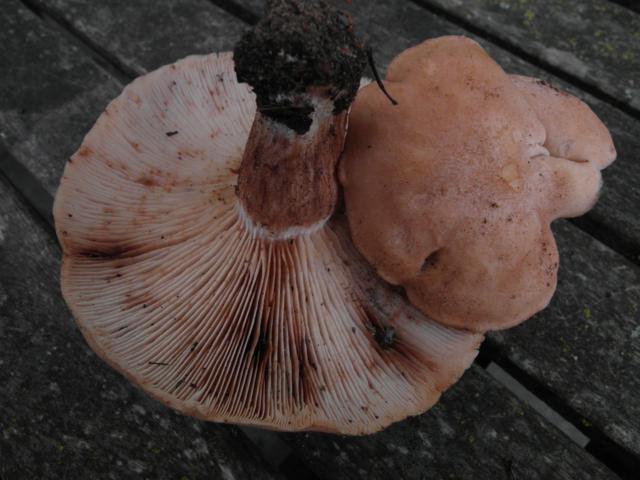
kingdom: Fungi
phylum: Basidiomycota
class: Agaricomycetes
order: Agaricales
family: Entolomataceae
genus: Clitopilus
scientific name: Clitopilus geminus
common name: kødfarvet troldhat
